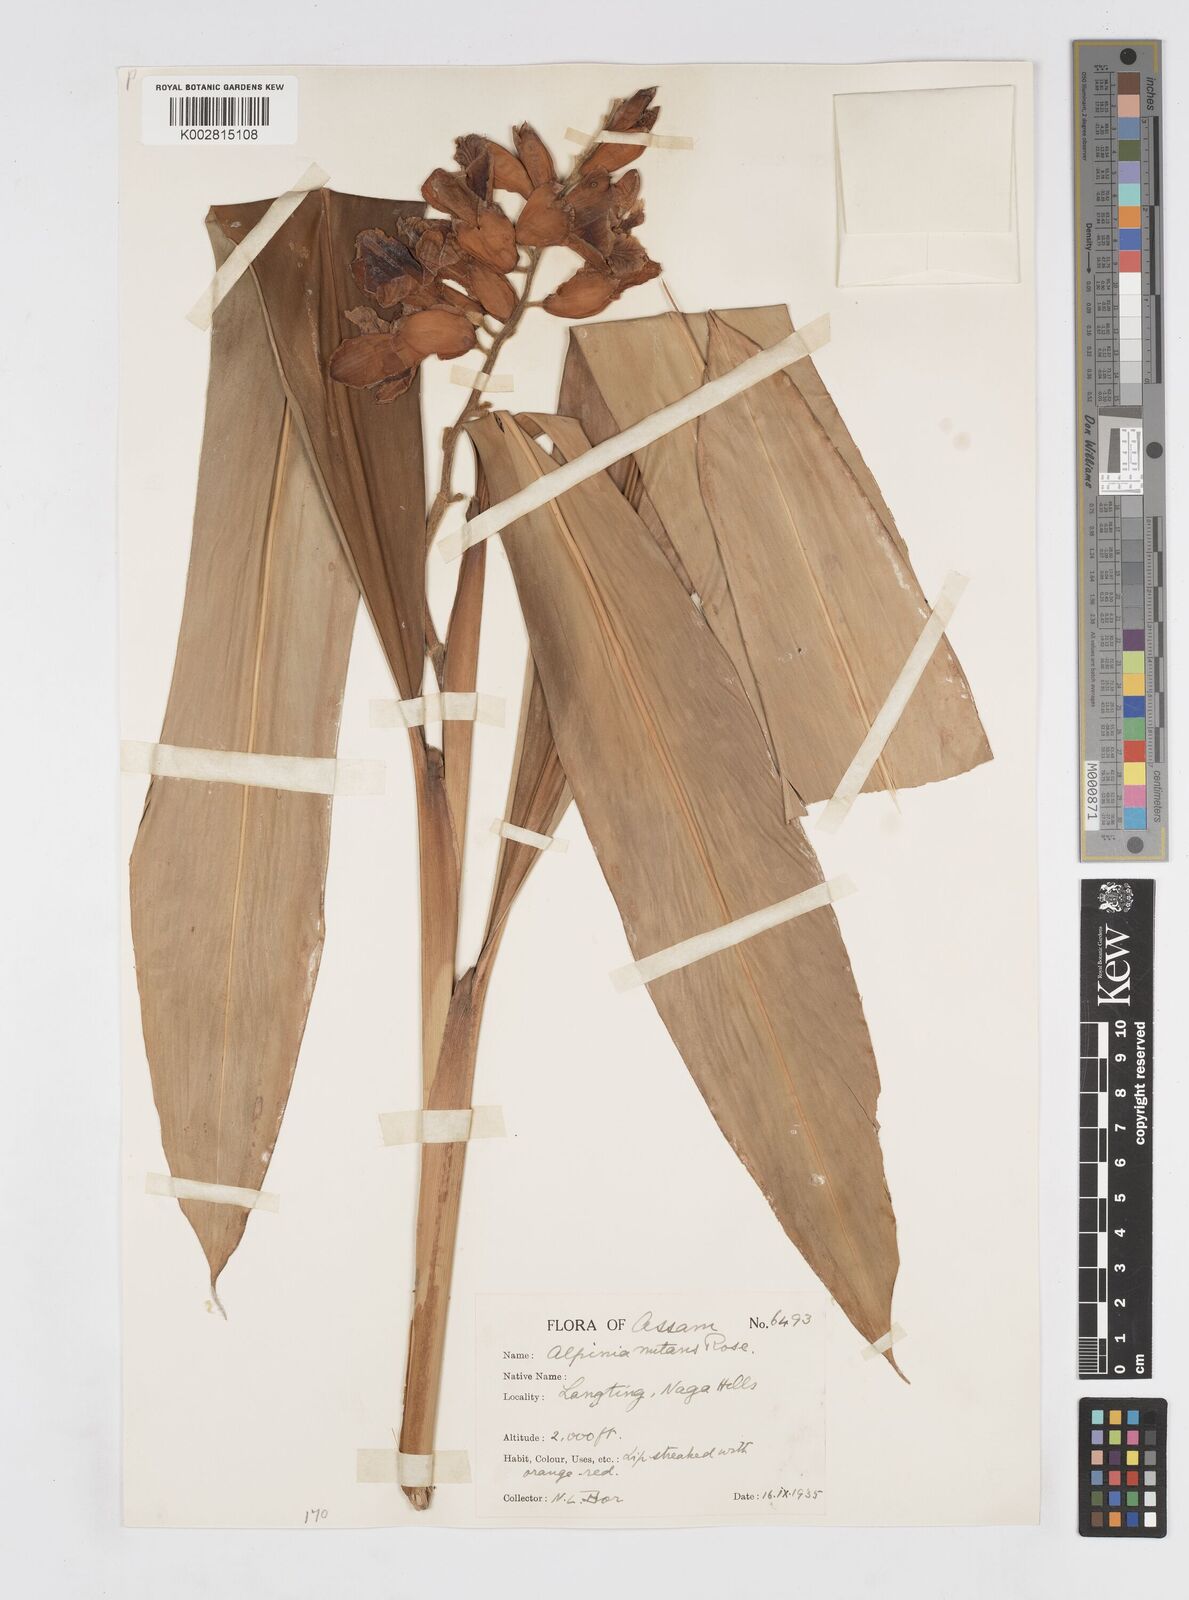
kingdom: Plantae
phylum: Tracheophyta
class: Liliopsida
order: Zingiberales
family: Zingiberaceae
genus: Alpinia
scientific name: Alpinia zerumbet
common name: Shellplant
